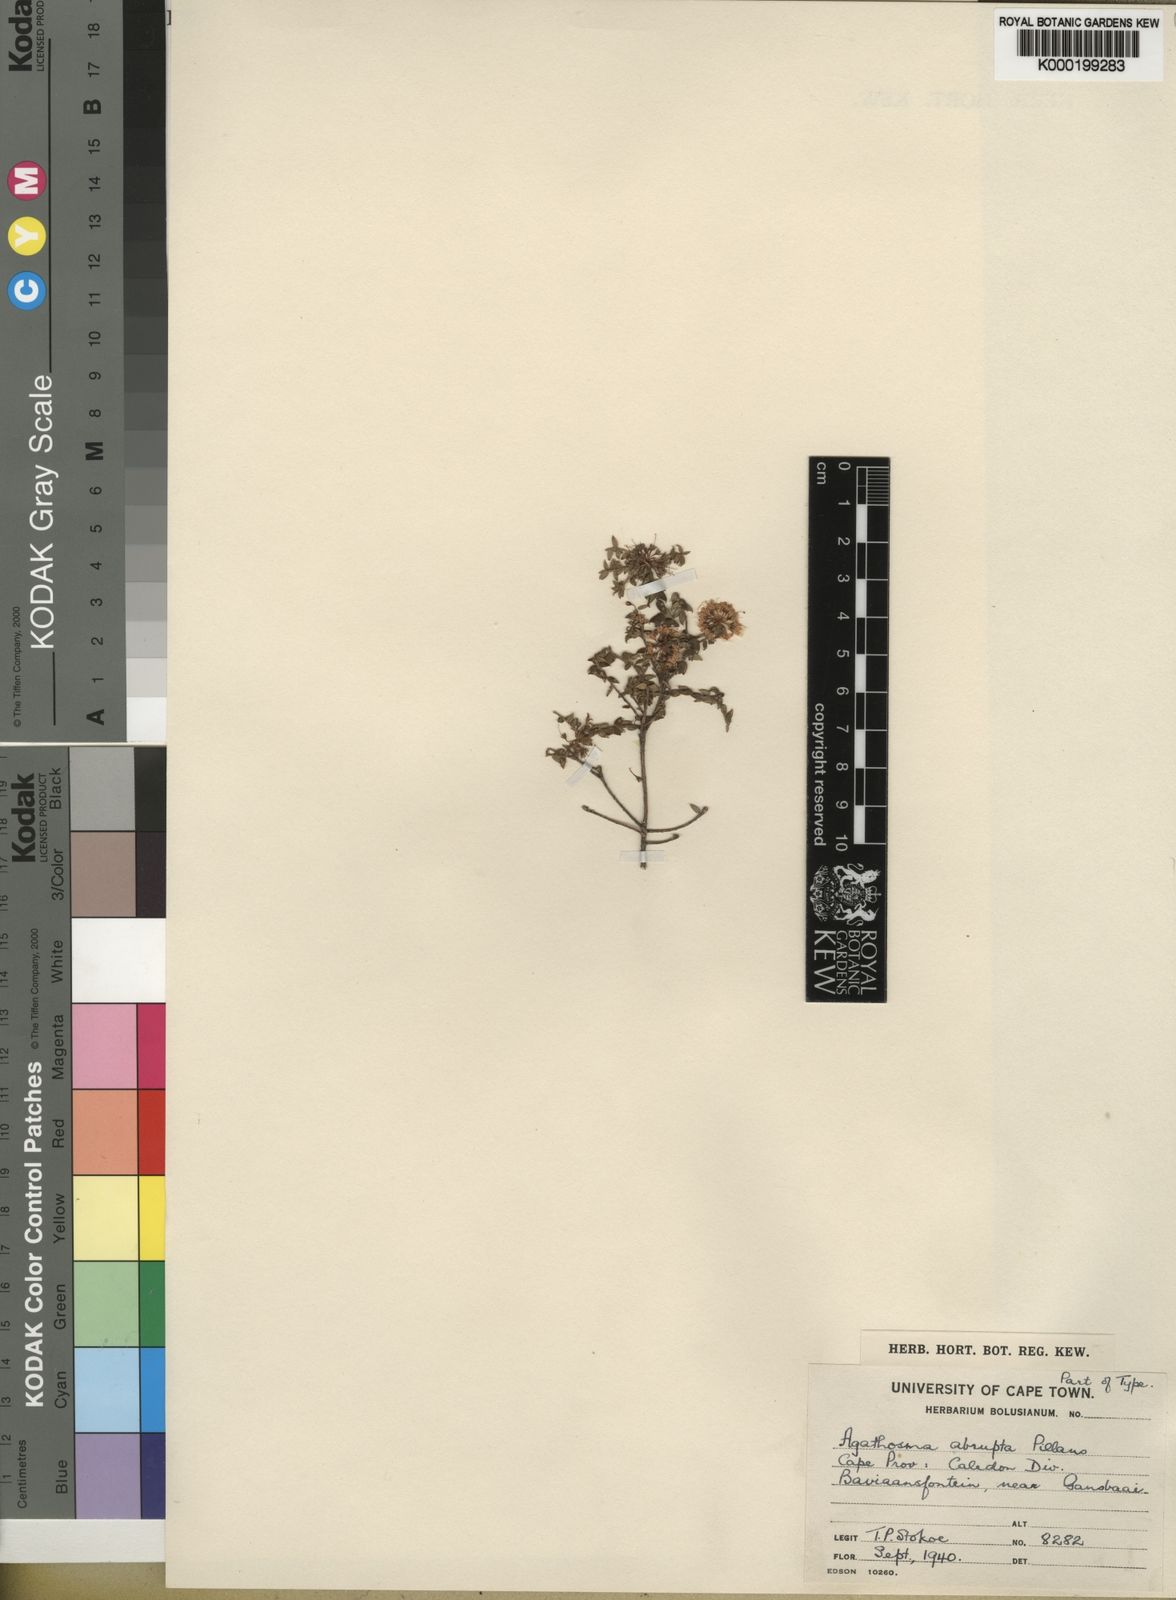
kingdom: Plantae
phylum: Tracheophyta
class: Magnoliopsida
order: Sapindales
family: Rutaceae
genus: Agathosma
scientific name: Agathosma abrupta
